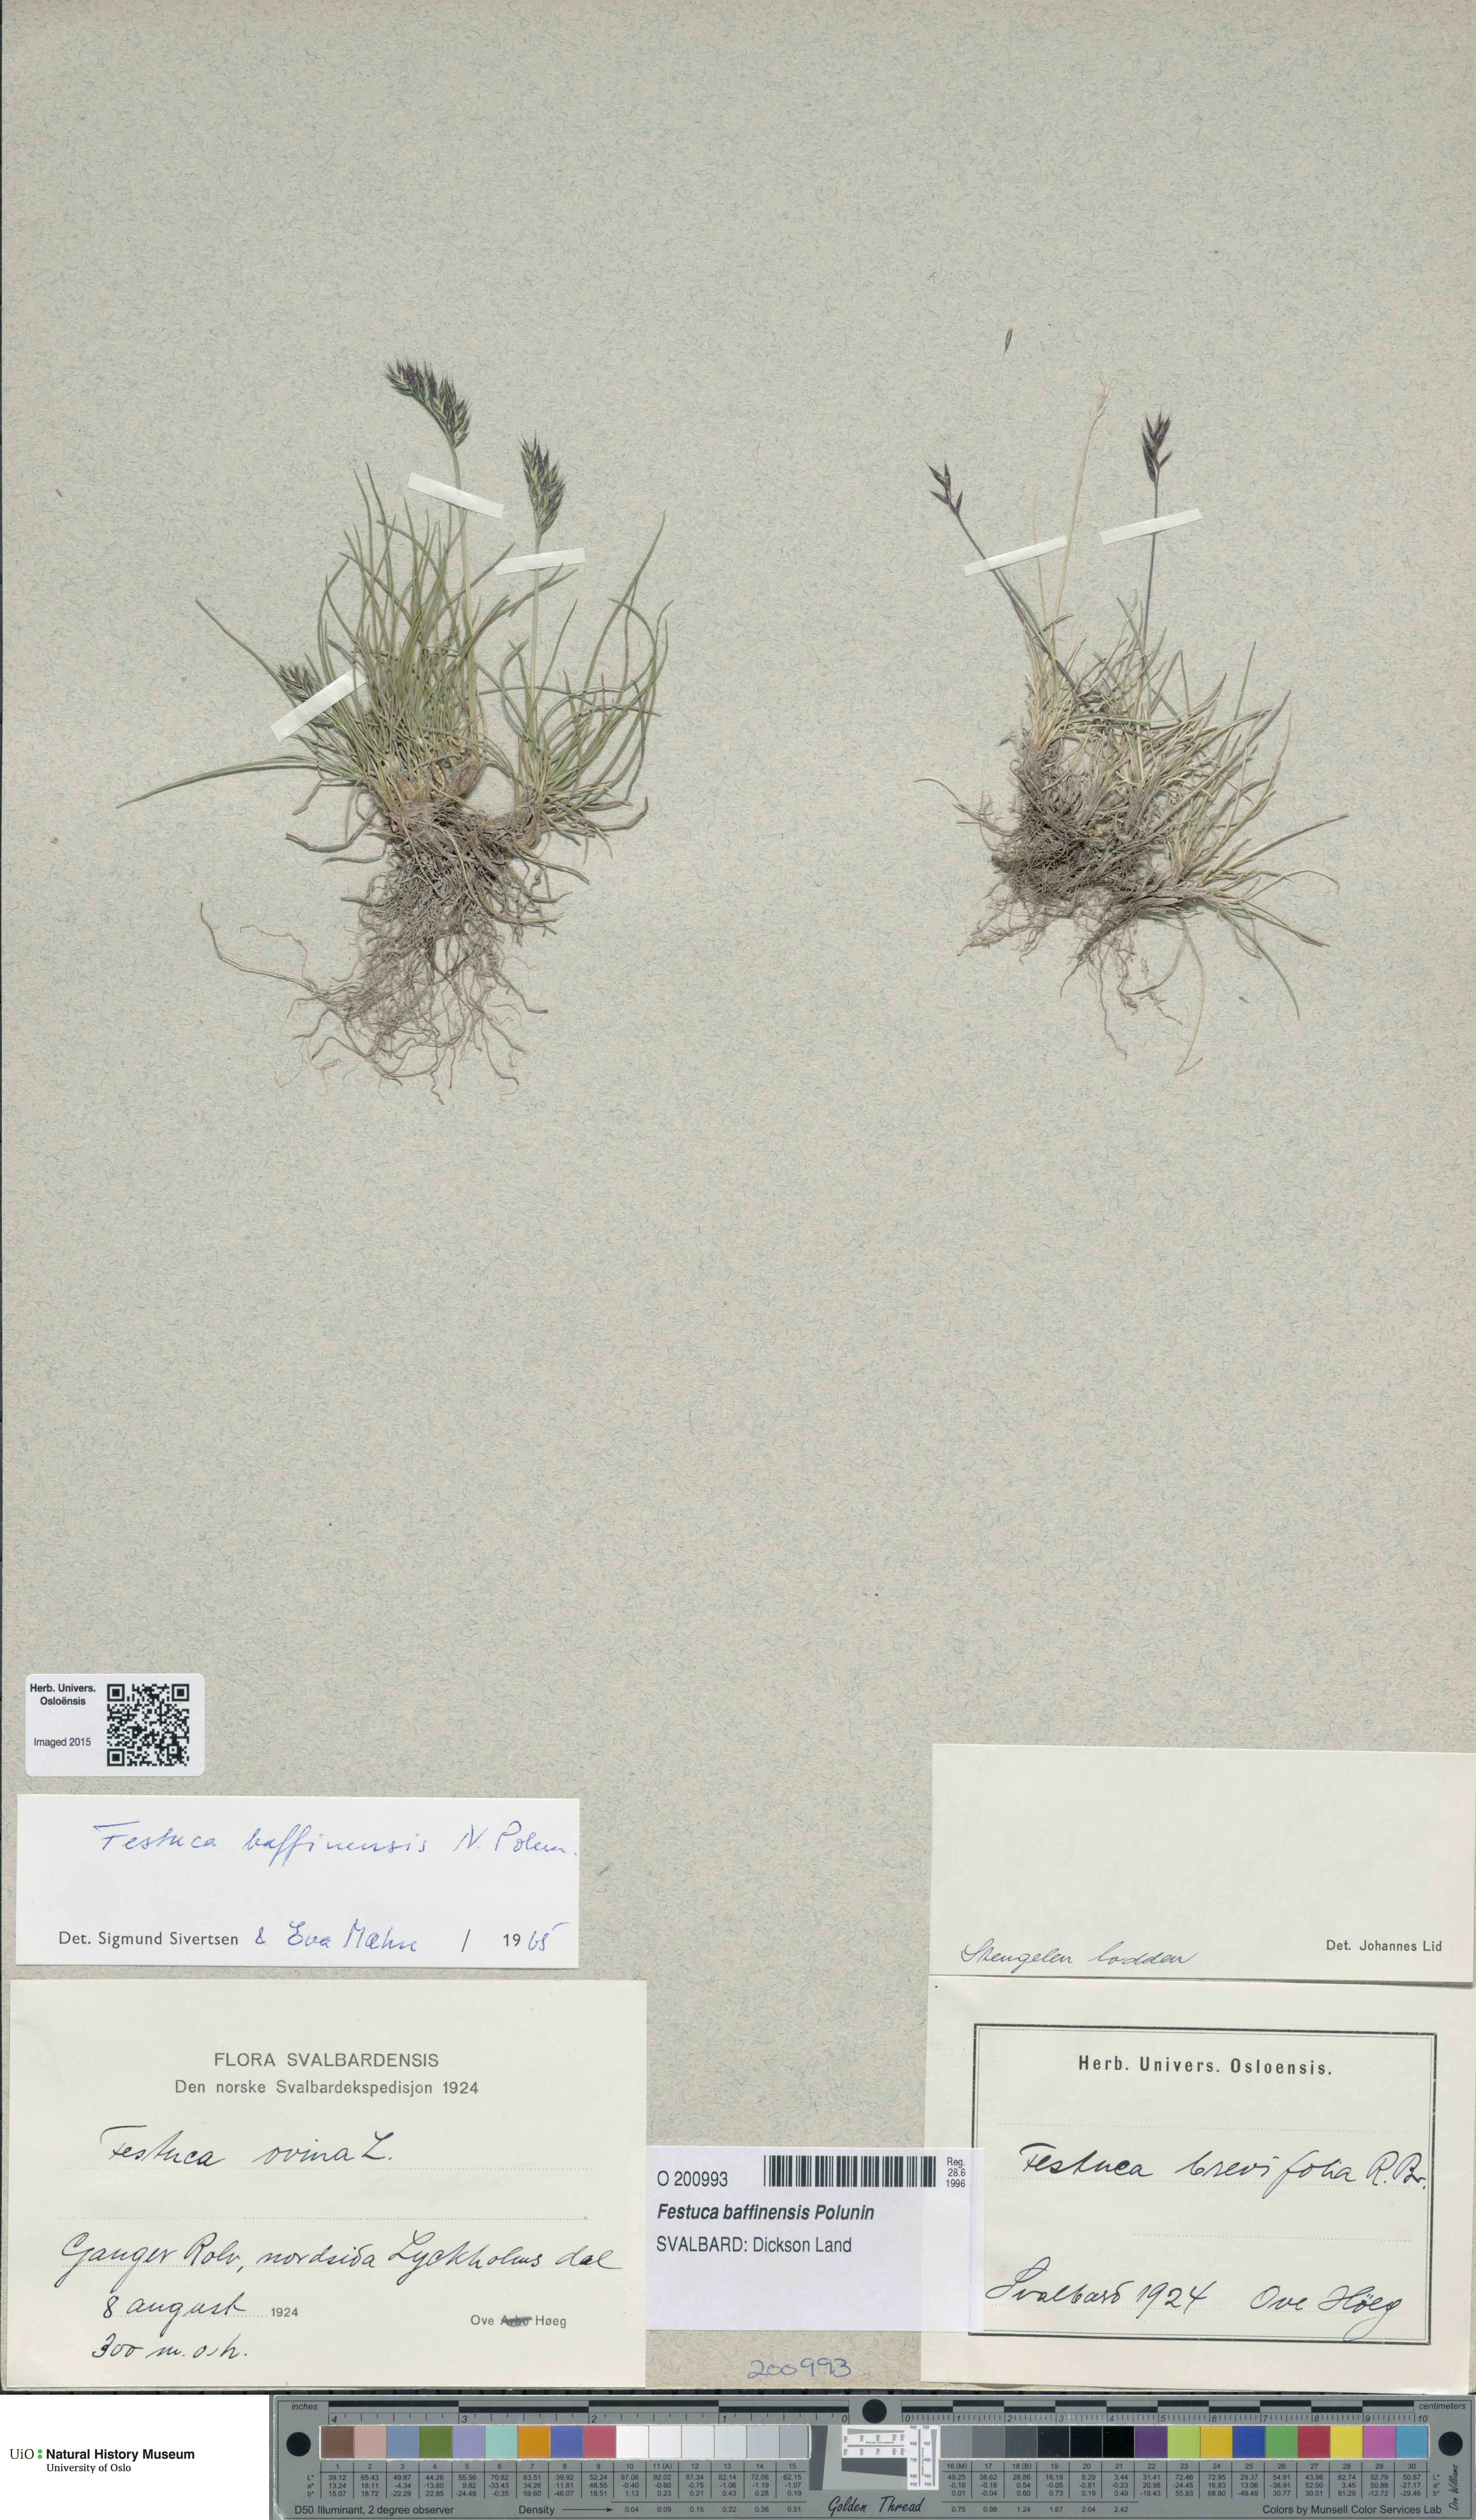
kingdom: Plantae
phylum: Tracheophyta
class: Liliopsida
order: Poales
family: Poaceae
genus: Festuca
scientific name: Festuca baffinensis
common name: Baffin island fescue
